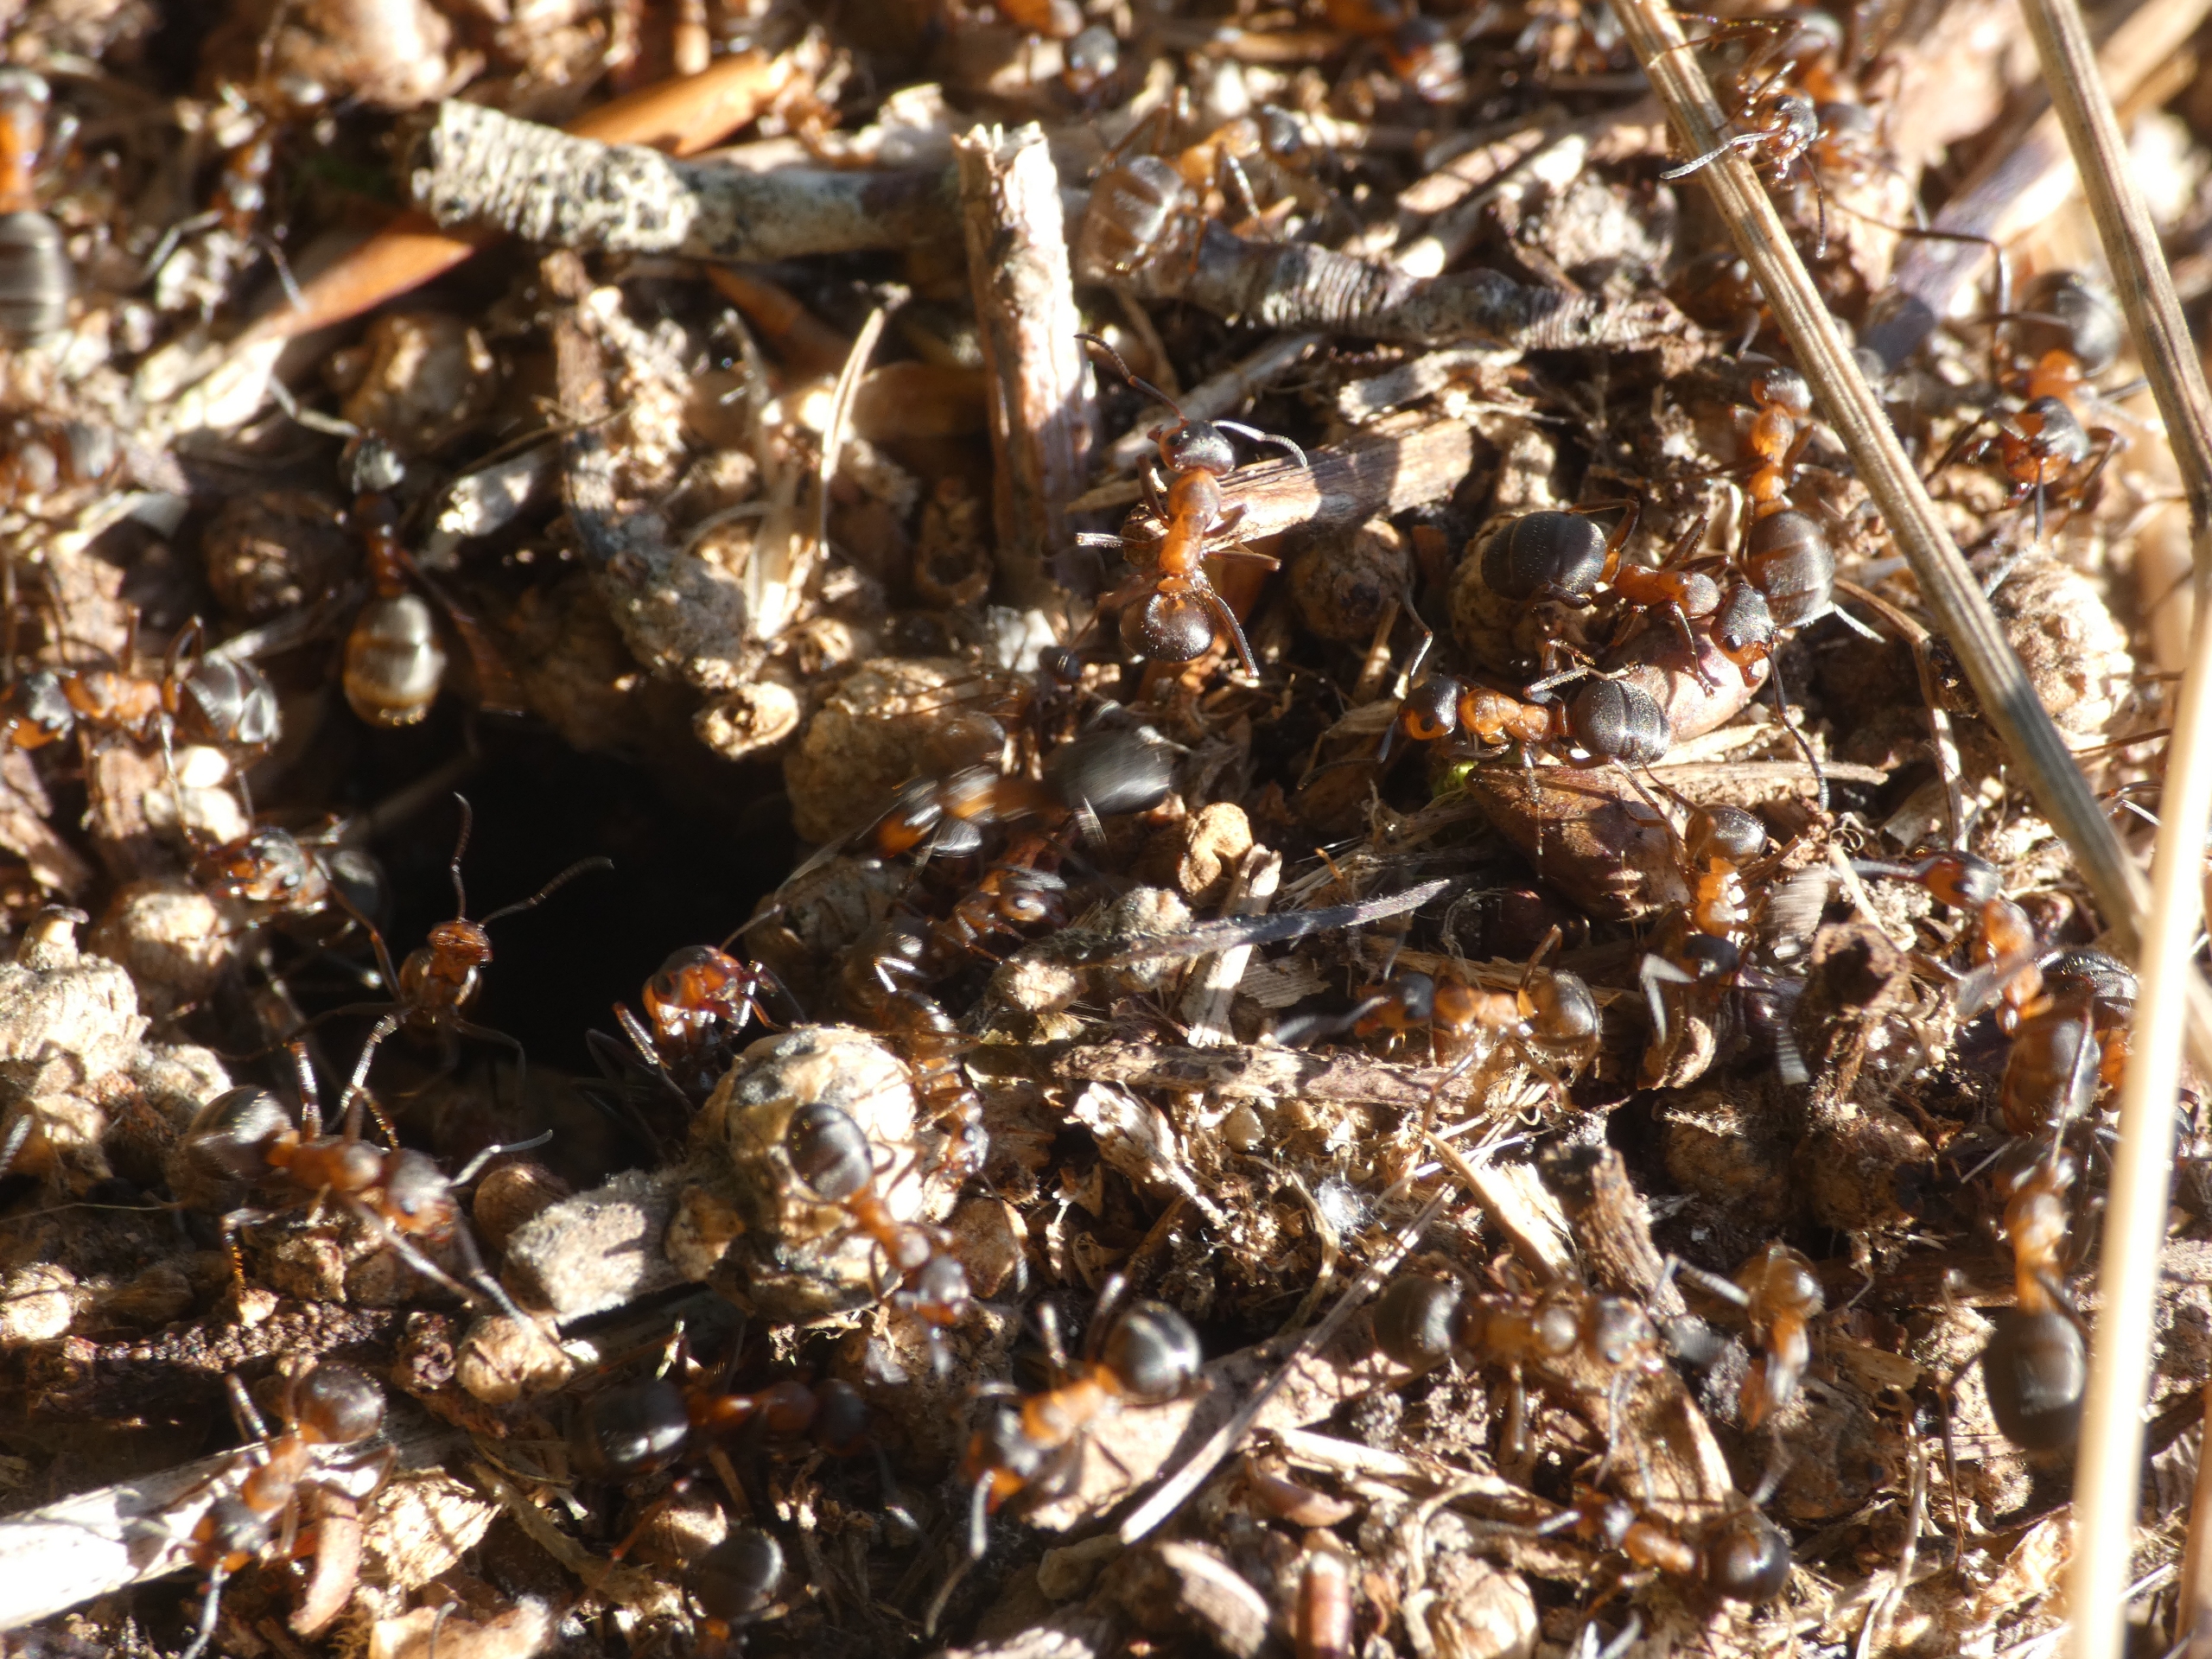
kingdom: Animalia
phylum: Arthropoda
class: Insecta
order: Hymenoptera
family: Formicidae
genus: Formica
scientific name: Formica
